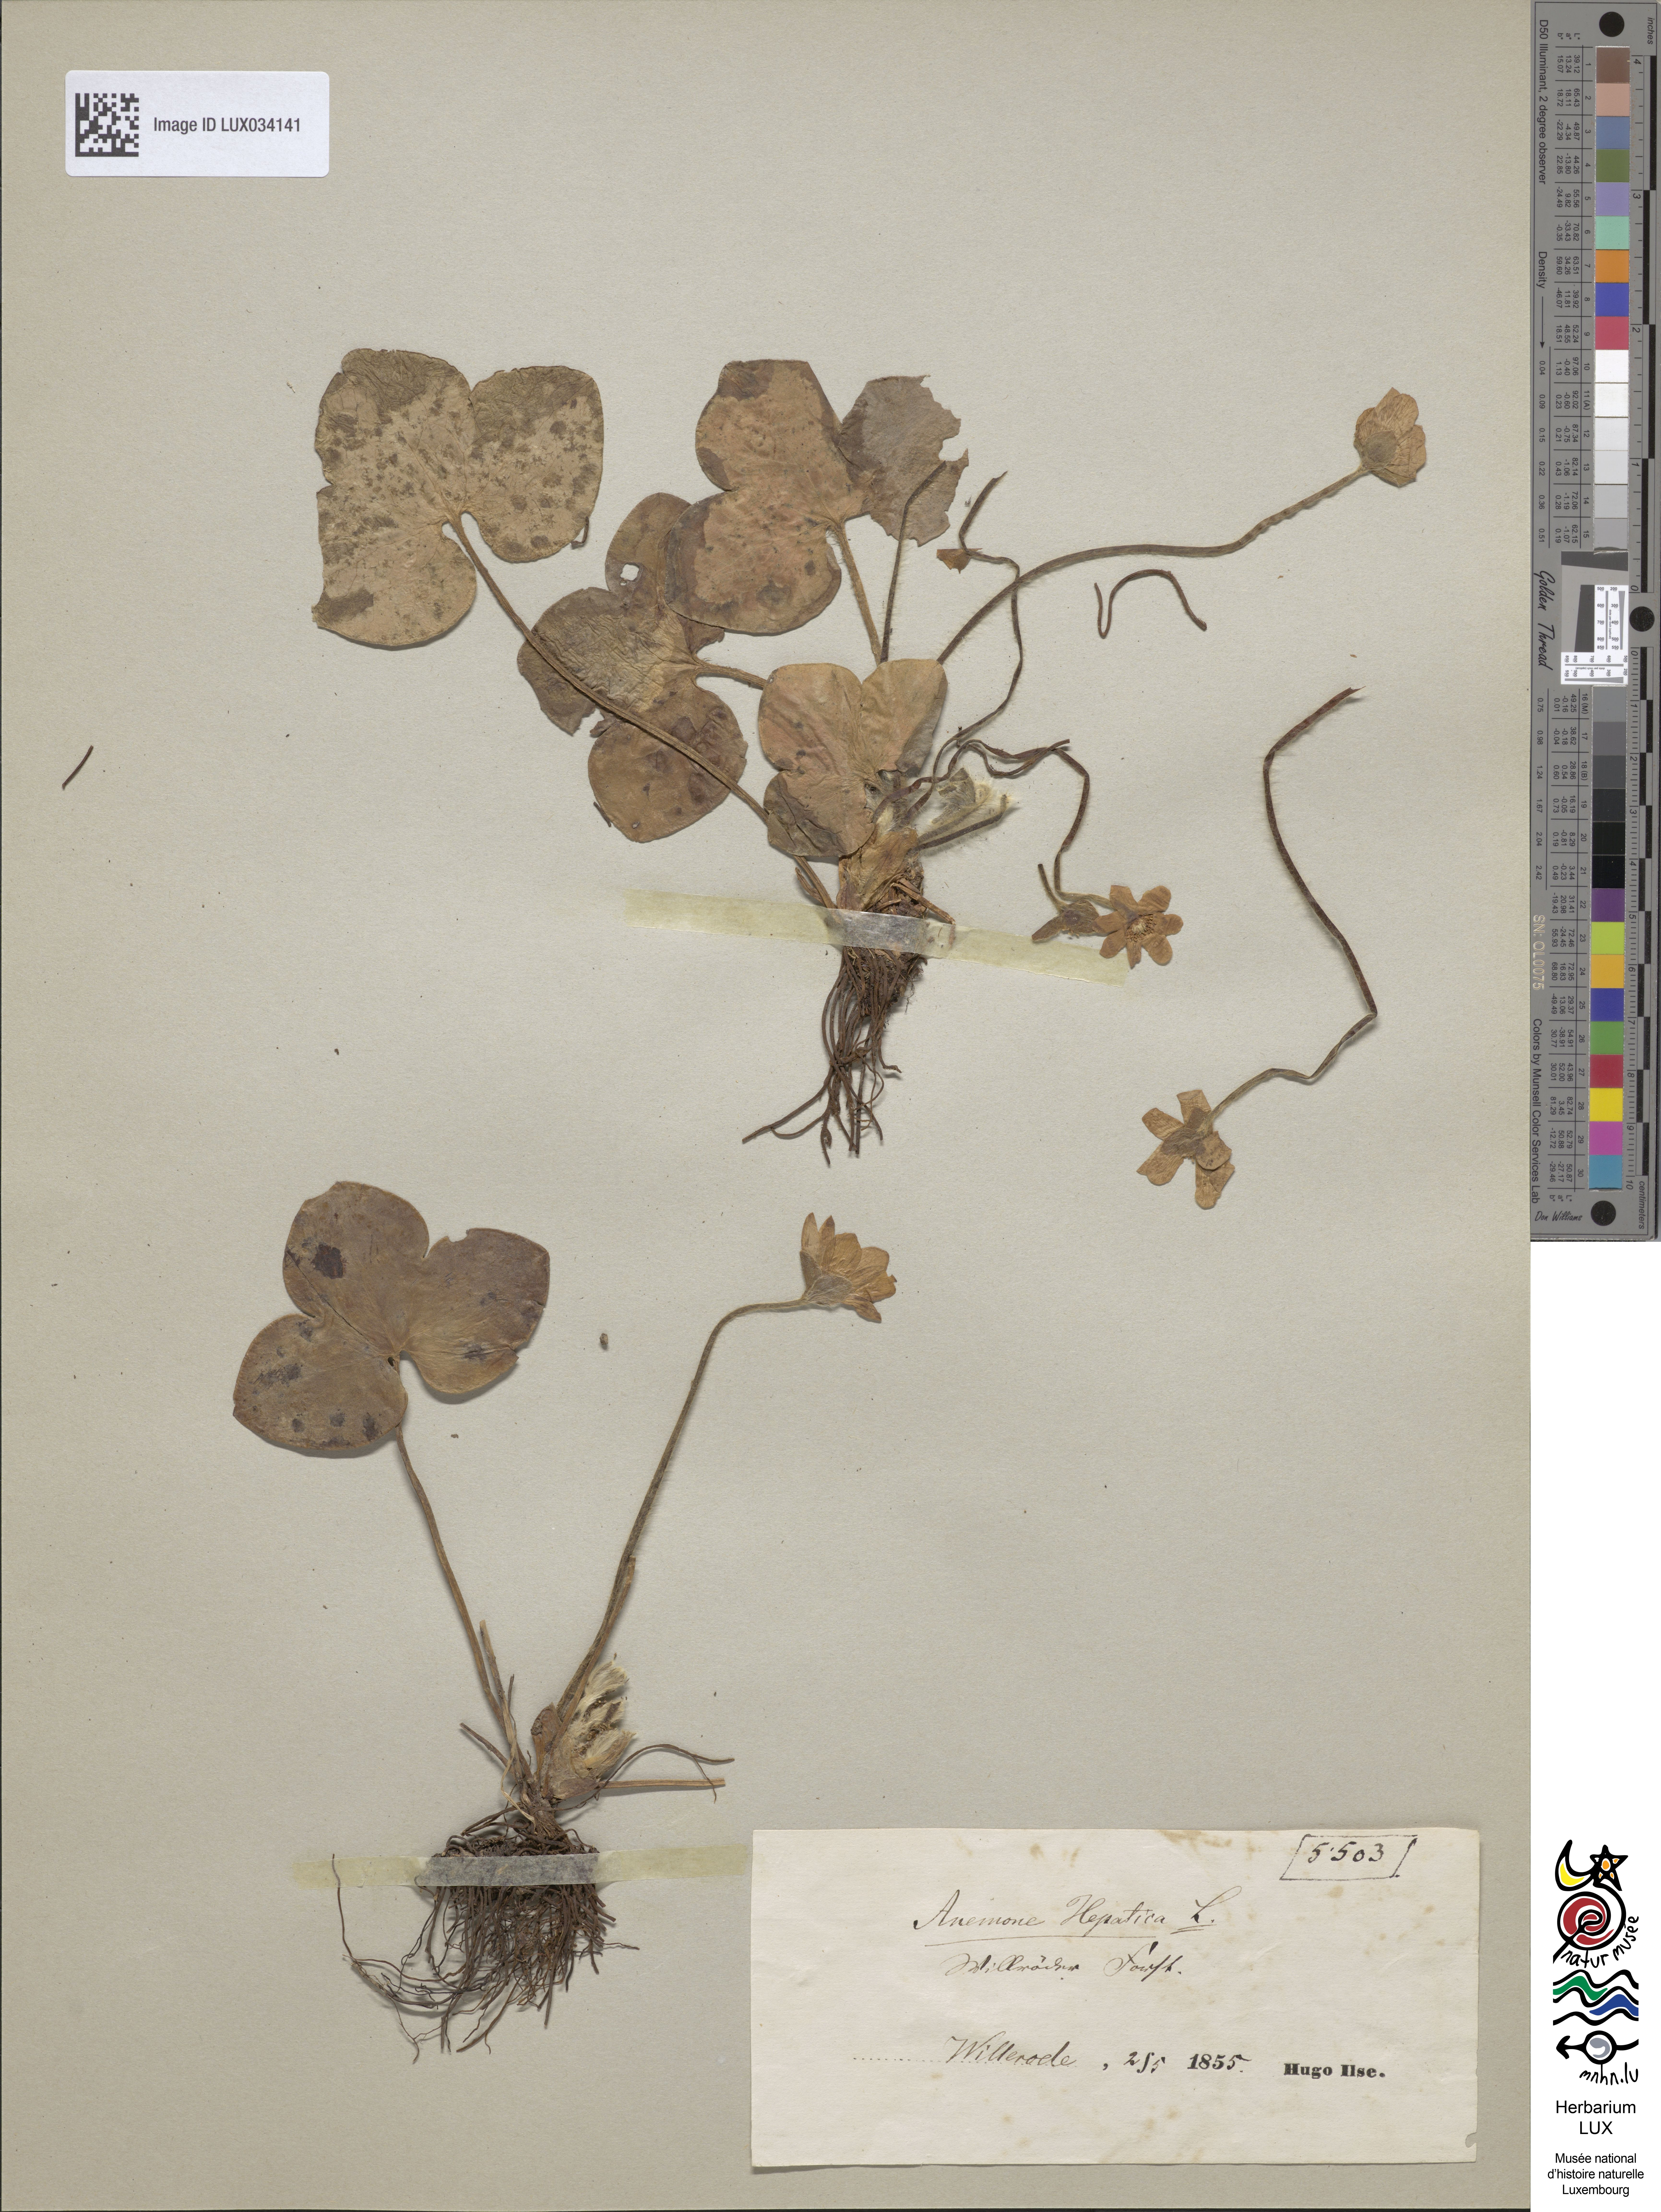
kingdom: Plantae
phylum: Tracheophyta
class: Magnoliopsida
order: Ranunculales
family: Ranunculaceae
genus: Hepatica
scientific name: Hepatica nobilis
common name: Liverleaf
